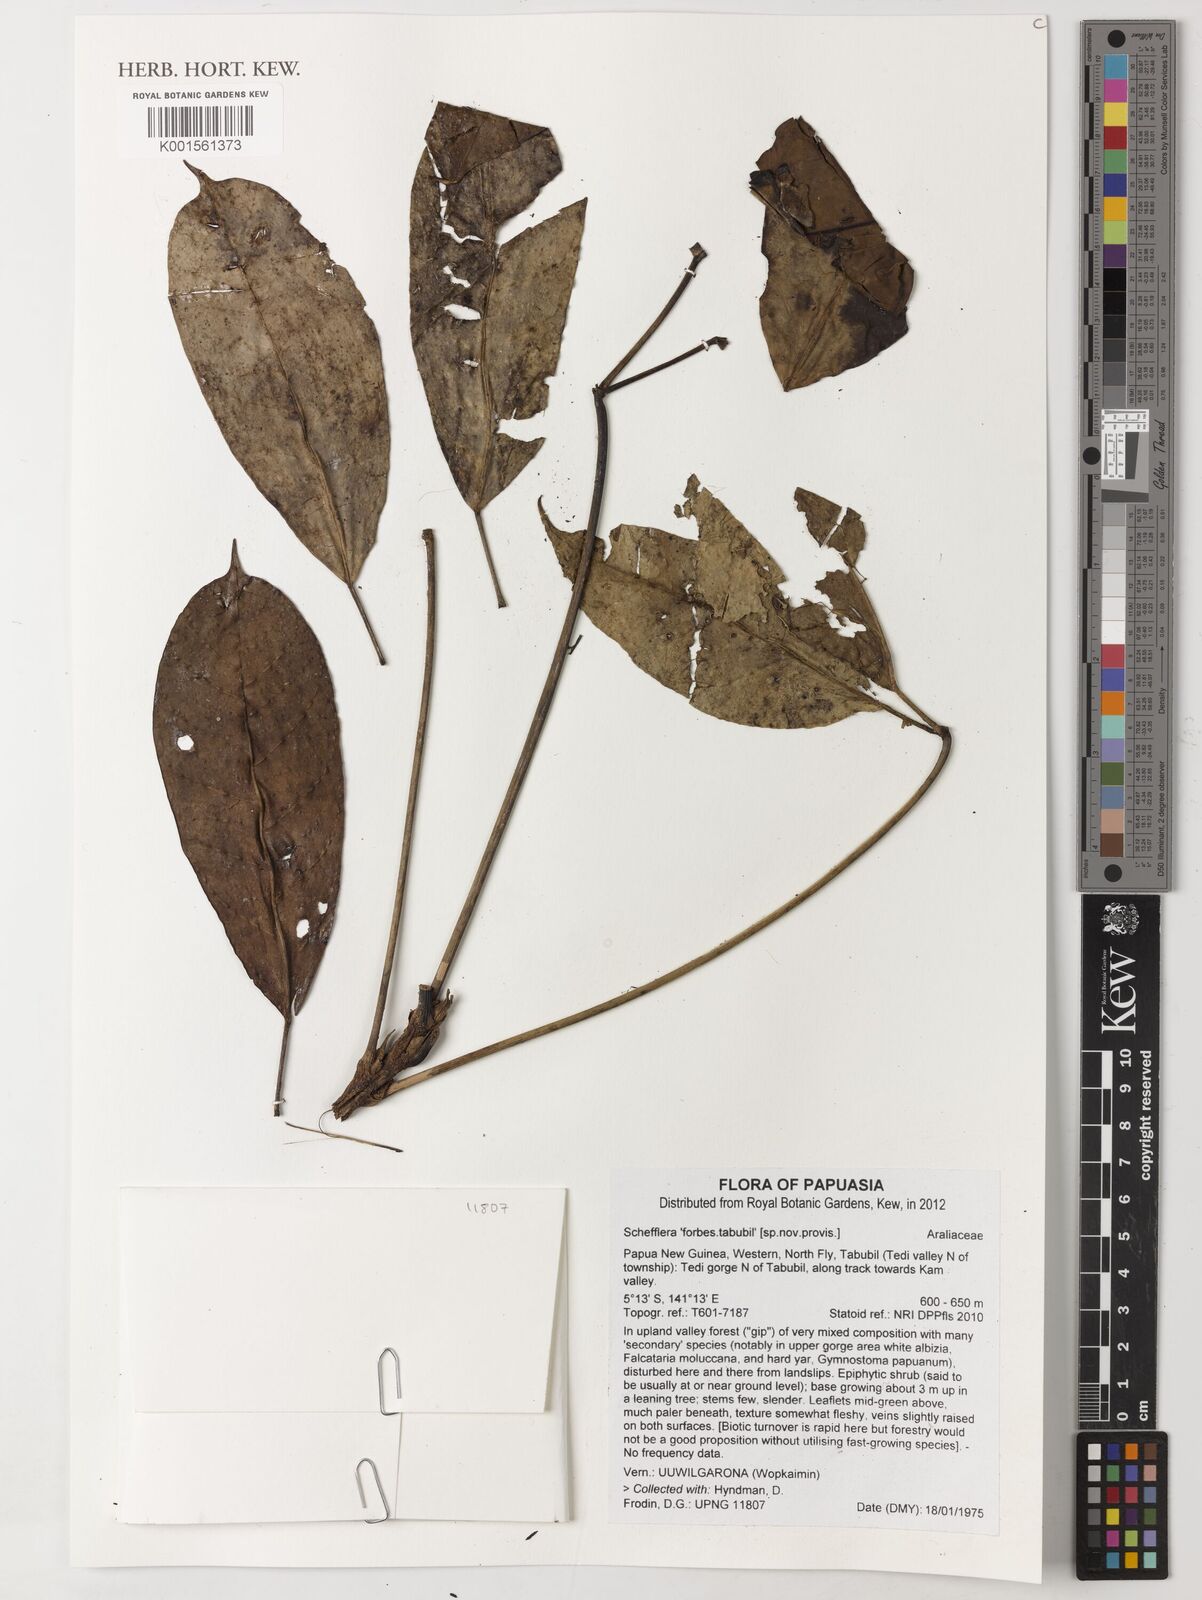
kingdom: Plantae
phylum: Tracheophyta
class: Magnoliopsida
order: Apiales
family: Araliaceae
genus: Schefflera
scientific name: Schefflera
